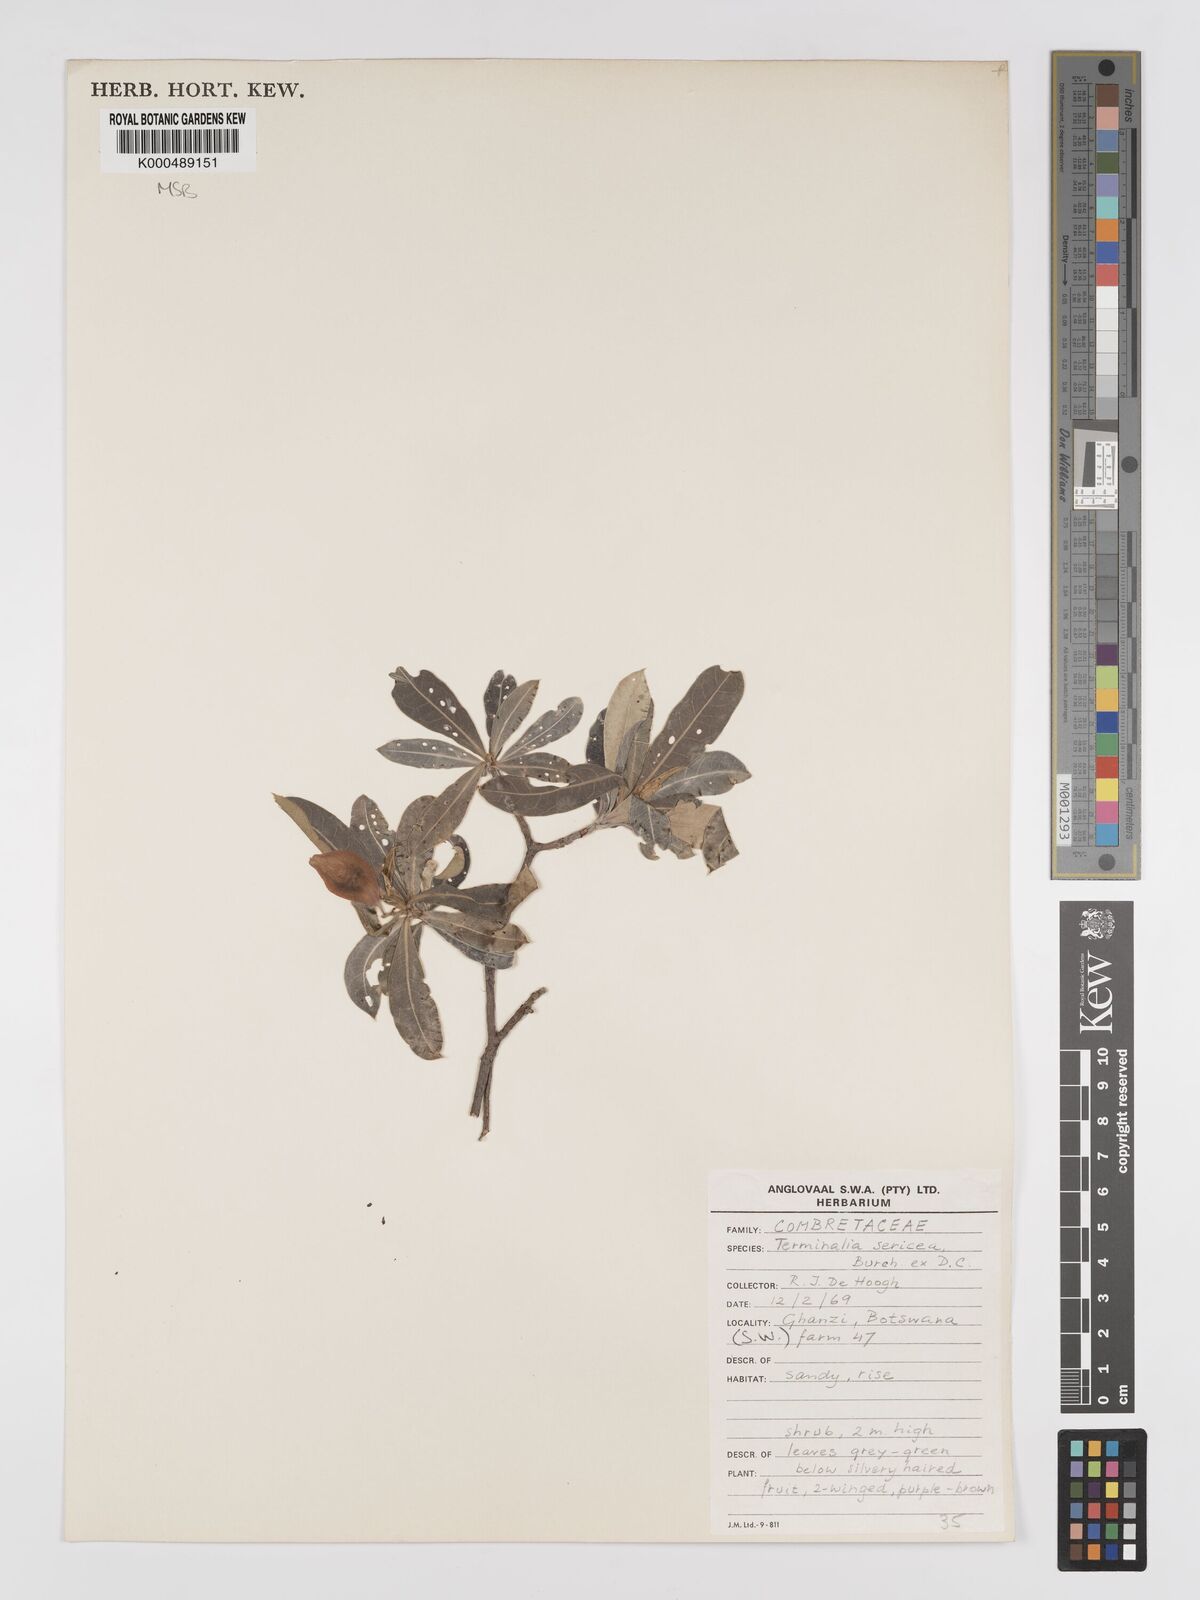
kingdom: Plantae
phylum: Tracheophyta
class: Magnoliopsida
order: Myrtales
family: Combretaceae
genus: Terminalia
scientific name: Terminalia sericea
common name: Clusterleaf
